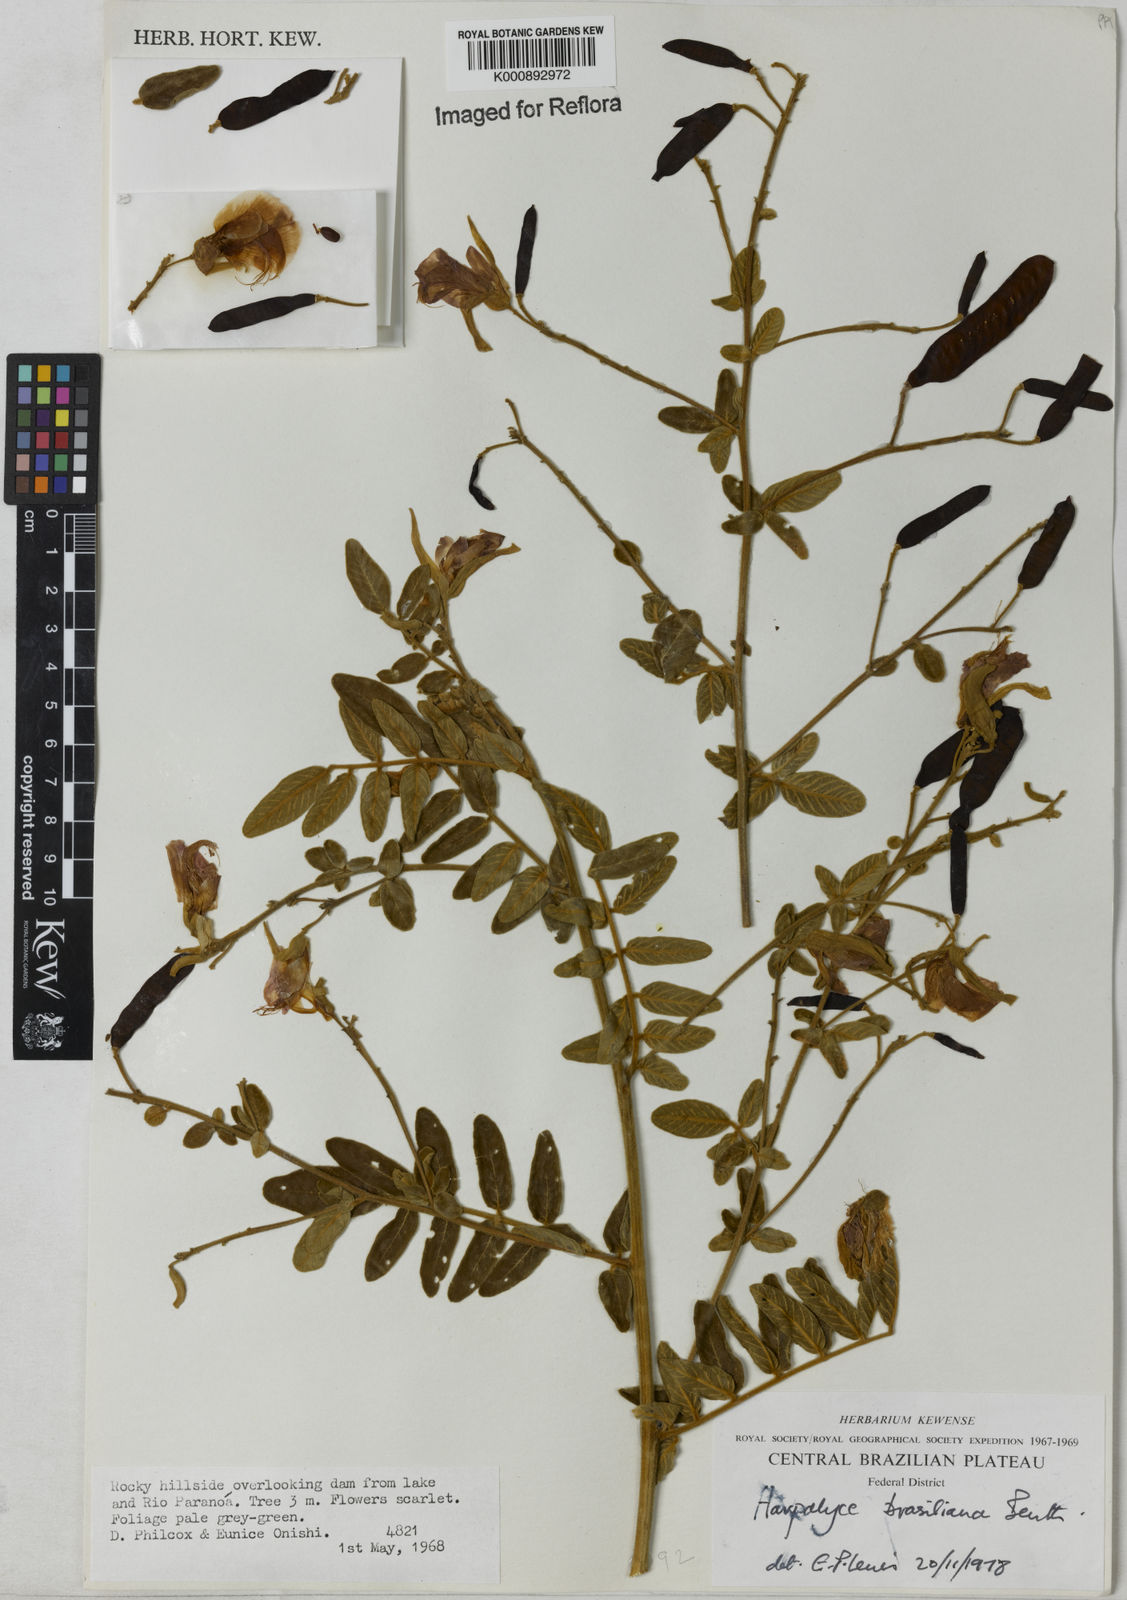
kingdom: Plantae
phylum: Tracheophyta
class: Magnoliopsida
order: Fabales
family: Fabaceae
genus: Harpalyce
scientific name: Harpalyce brasiliana
